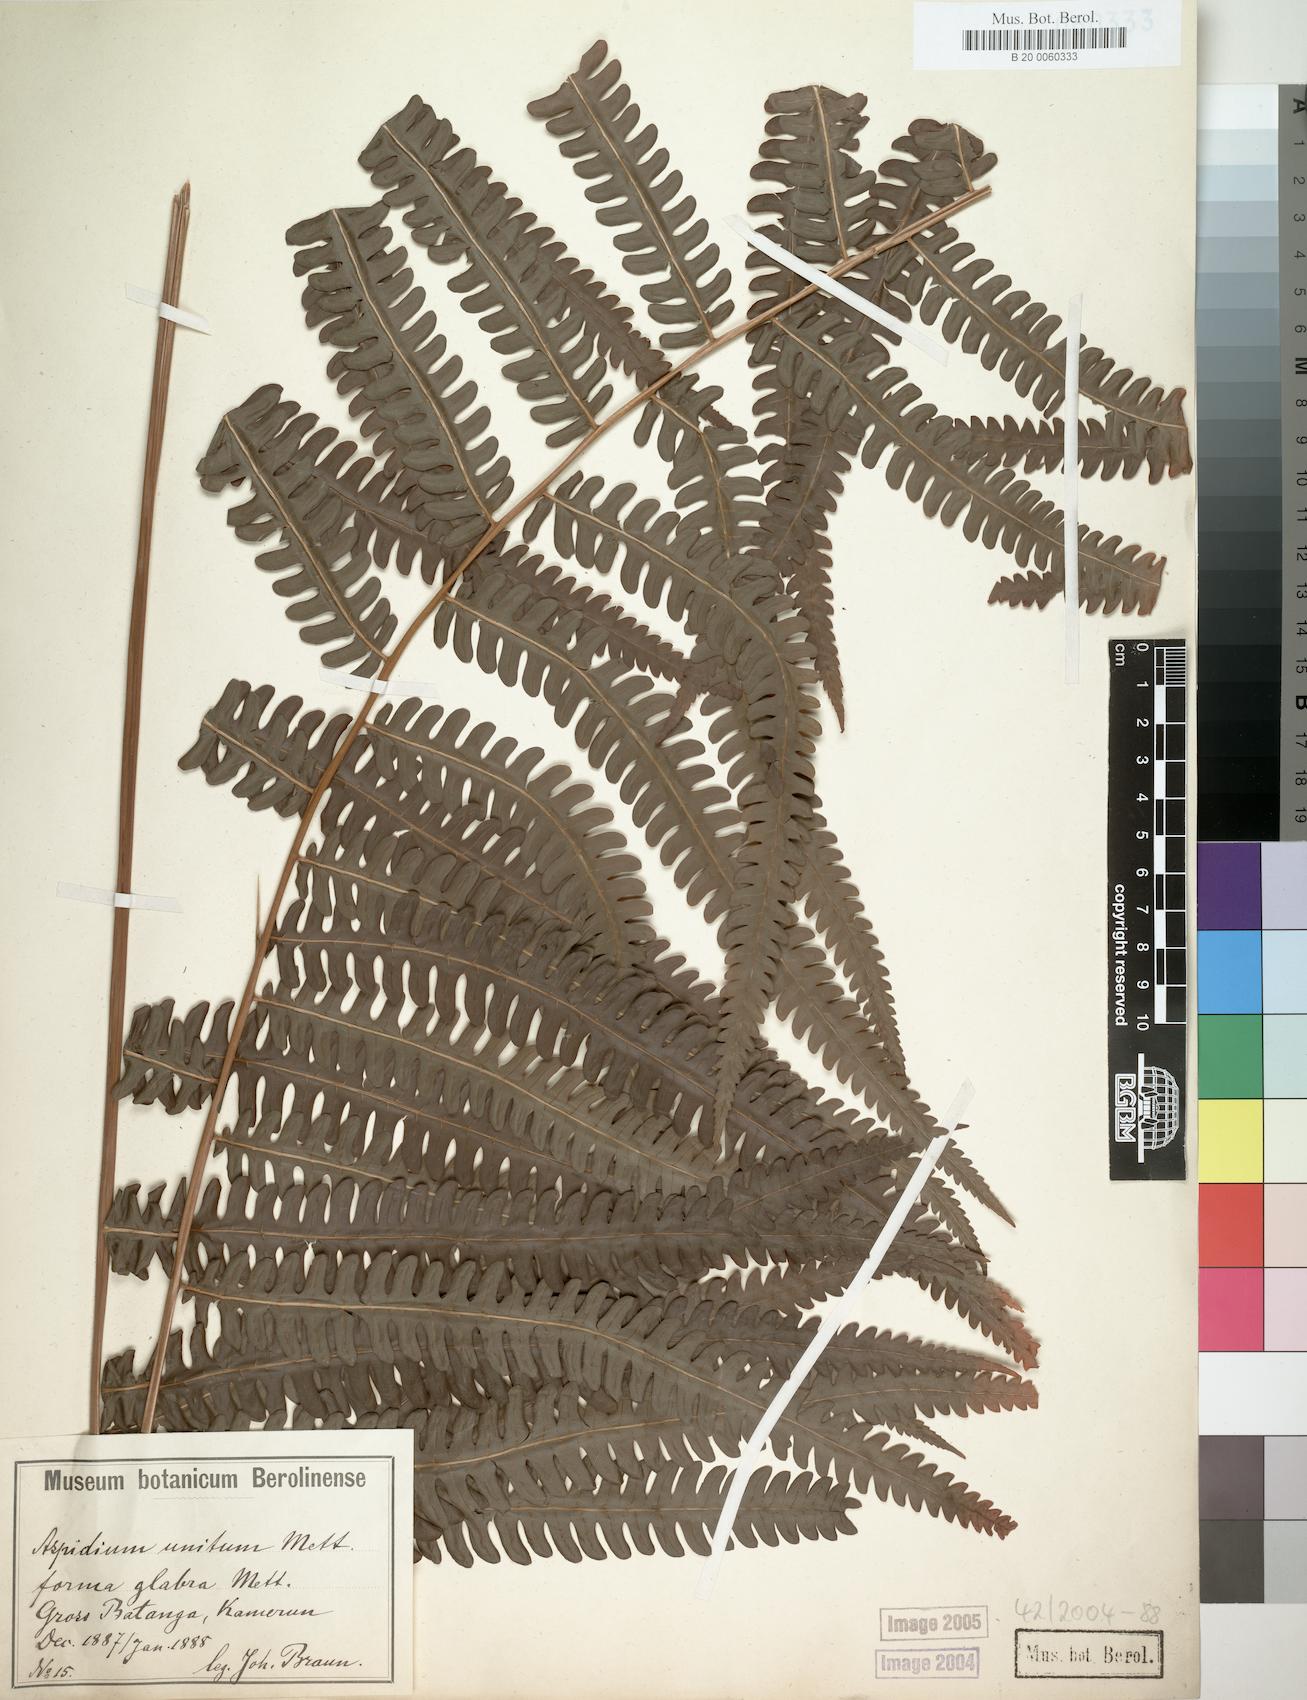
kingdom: Plantae
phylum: Tracheophyta
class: Polypodiopsida
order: Polypodiales
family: Thelypteridaceae
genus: Cyclosorus
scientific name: Cyclosorus interruptus
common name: Neke fern
